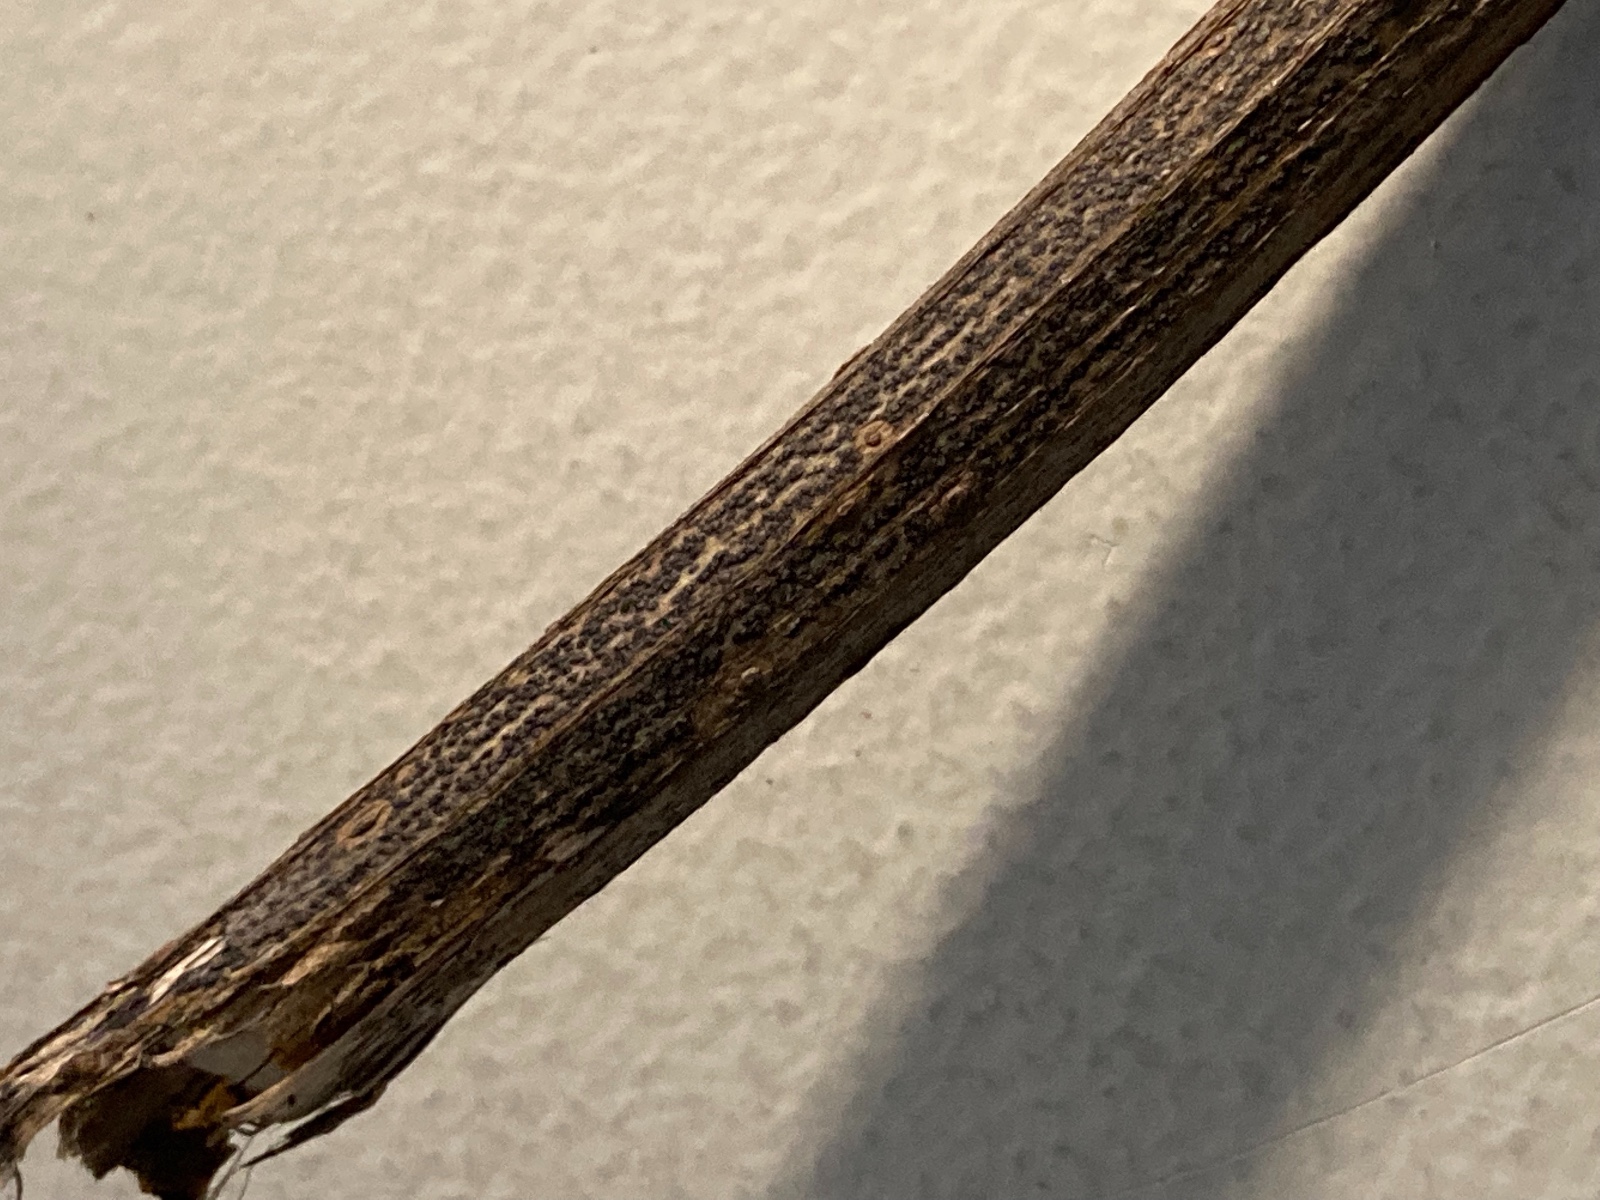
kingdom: Fungi
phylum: Ascomycota
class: Sordariomycetes
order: Diaporthales
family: Diaporthaceae
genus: Diaporthe
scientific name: Diaporthe circumscripta
